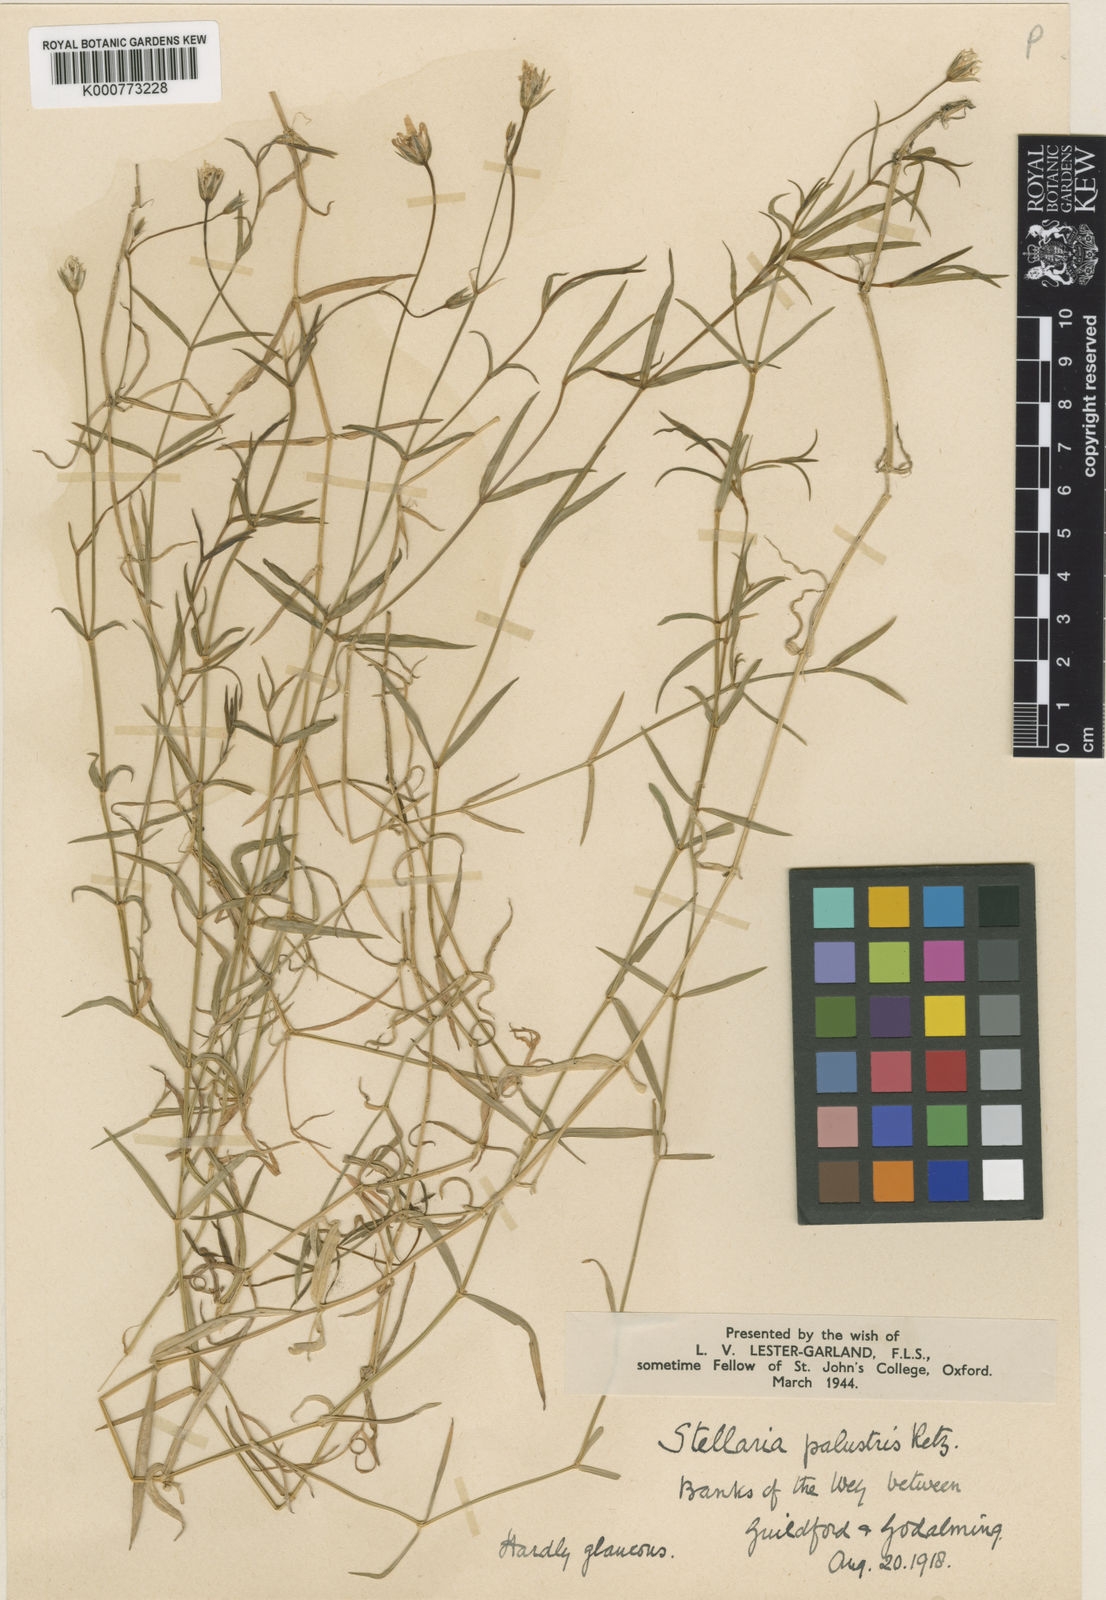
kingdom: Plantae
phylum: Tracheophyta
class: Magnoliopsida
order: Caryophyllales
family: Caryophyllaceae
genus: Stellaria
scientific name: Stellaria
